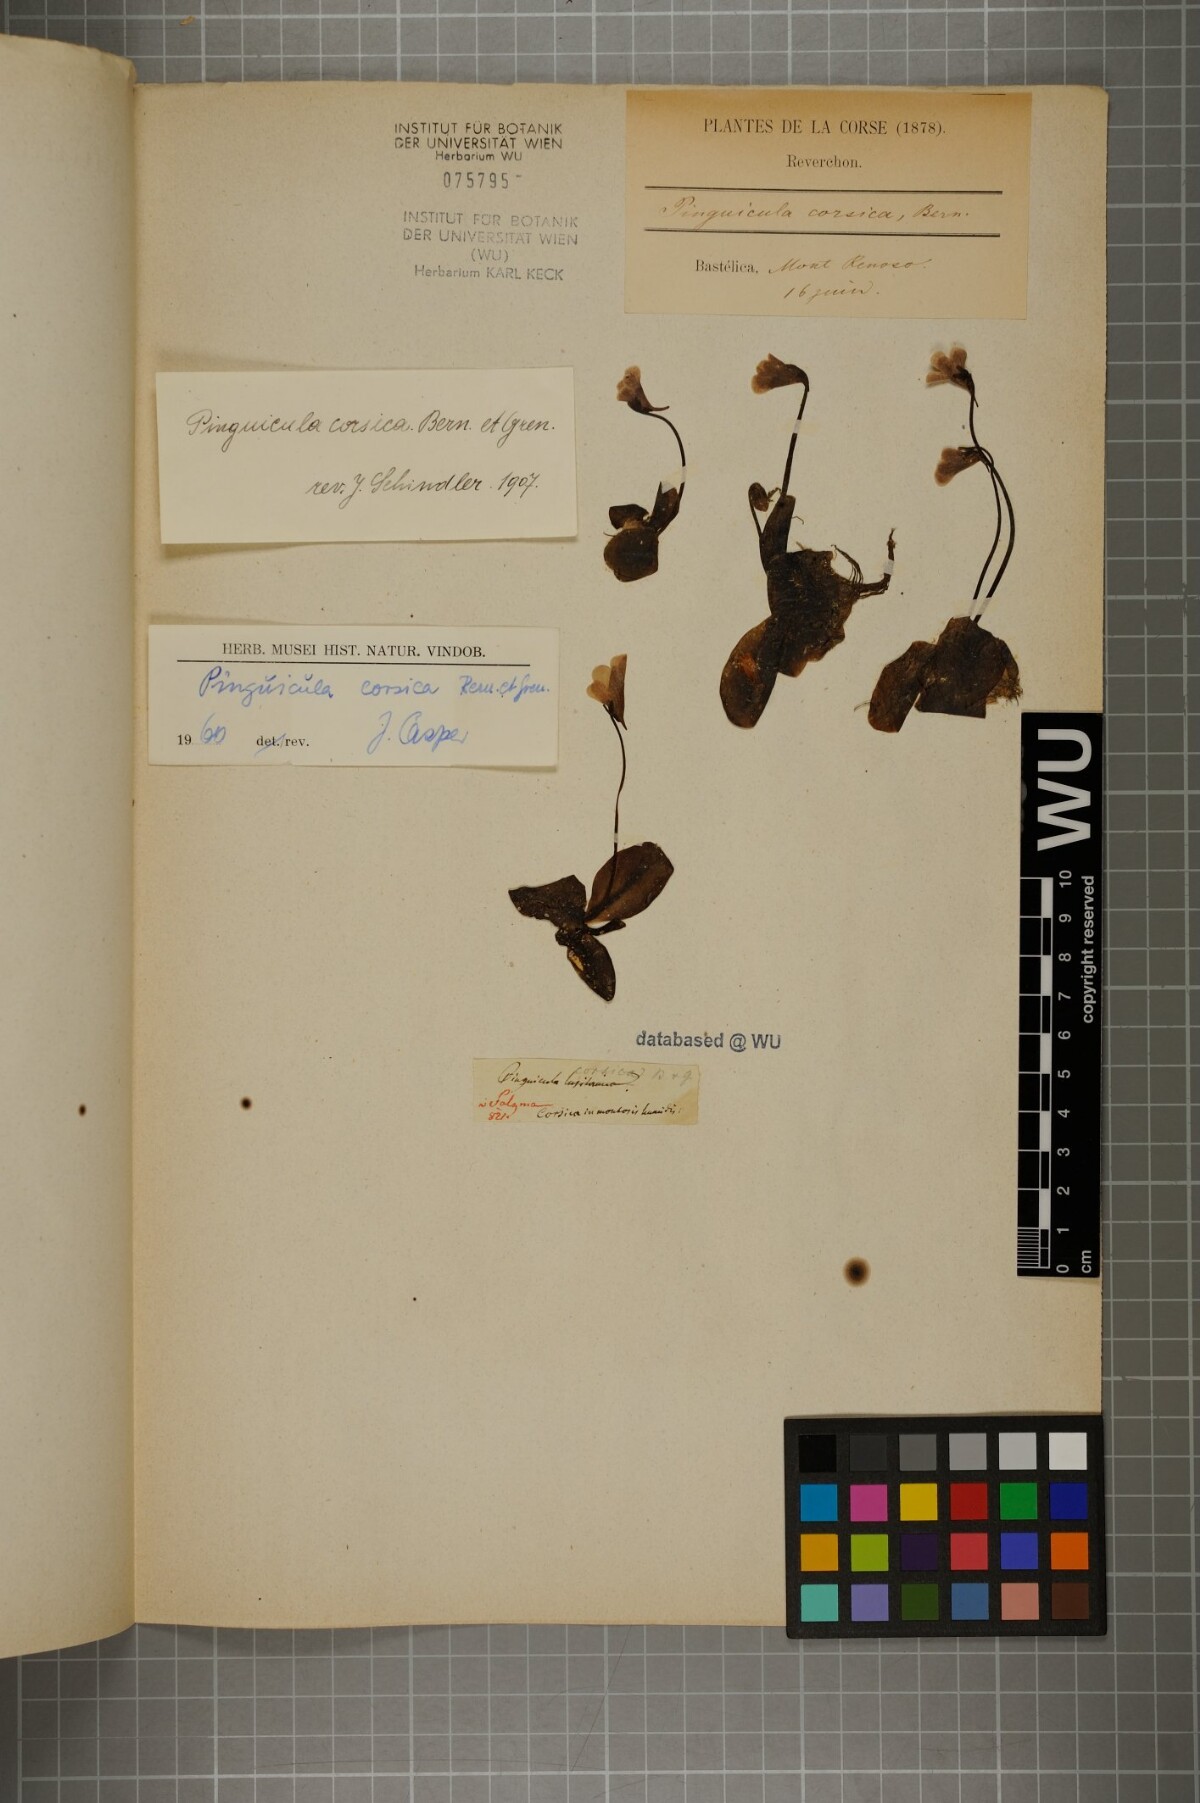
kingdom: Plantae
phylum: Tracheophyta
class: Magnoliopsida
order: Lamiales
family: Lentibulariaceae
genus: Pinguicula
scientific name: Pinguicula corsica
